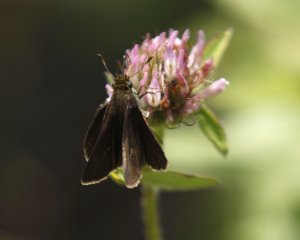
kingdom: Animalia
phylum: Arthropoda
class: Insecta
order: Lepidoptera
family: Hesperiidae
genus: Euphyes
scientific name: Euphyes vestris
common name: Dun Skipper
